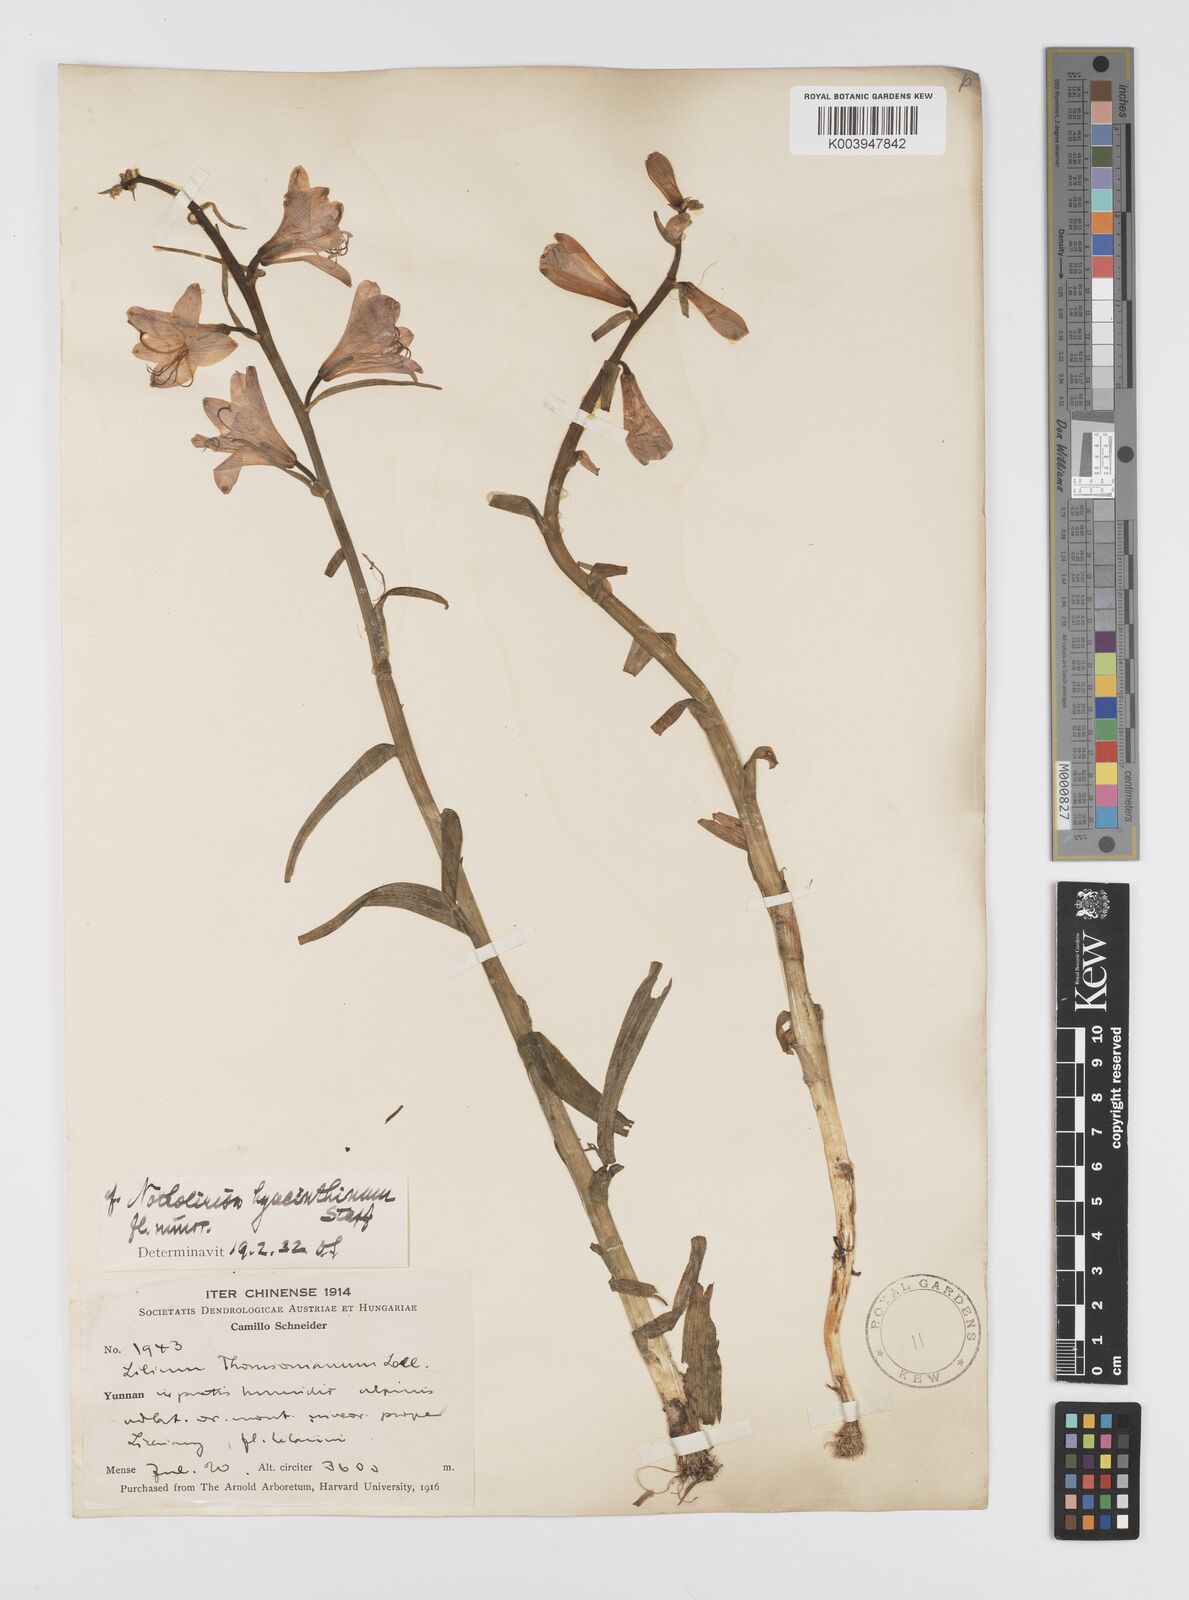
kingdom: Plantae
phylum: Tracheophyta
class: Liliopsida
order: Liliales
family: Liliaceae
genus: Notholirion
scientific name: Notholirion bulbuliferum
